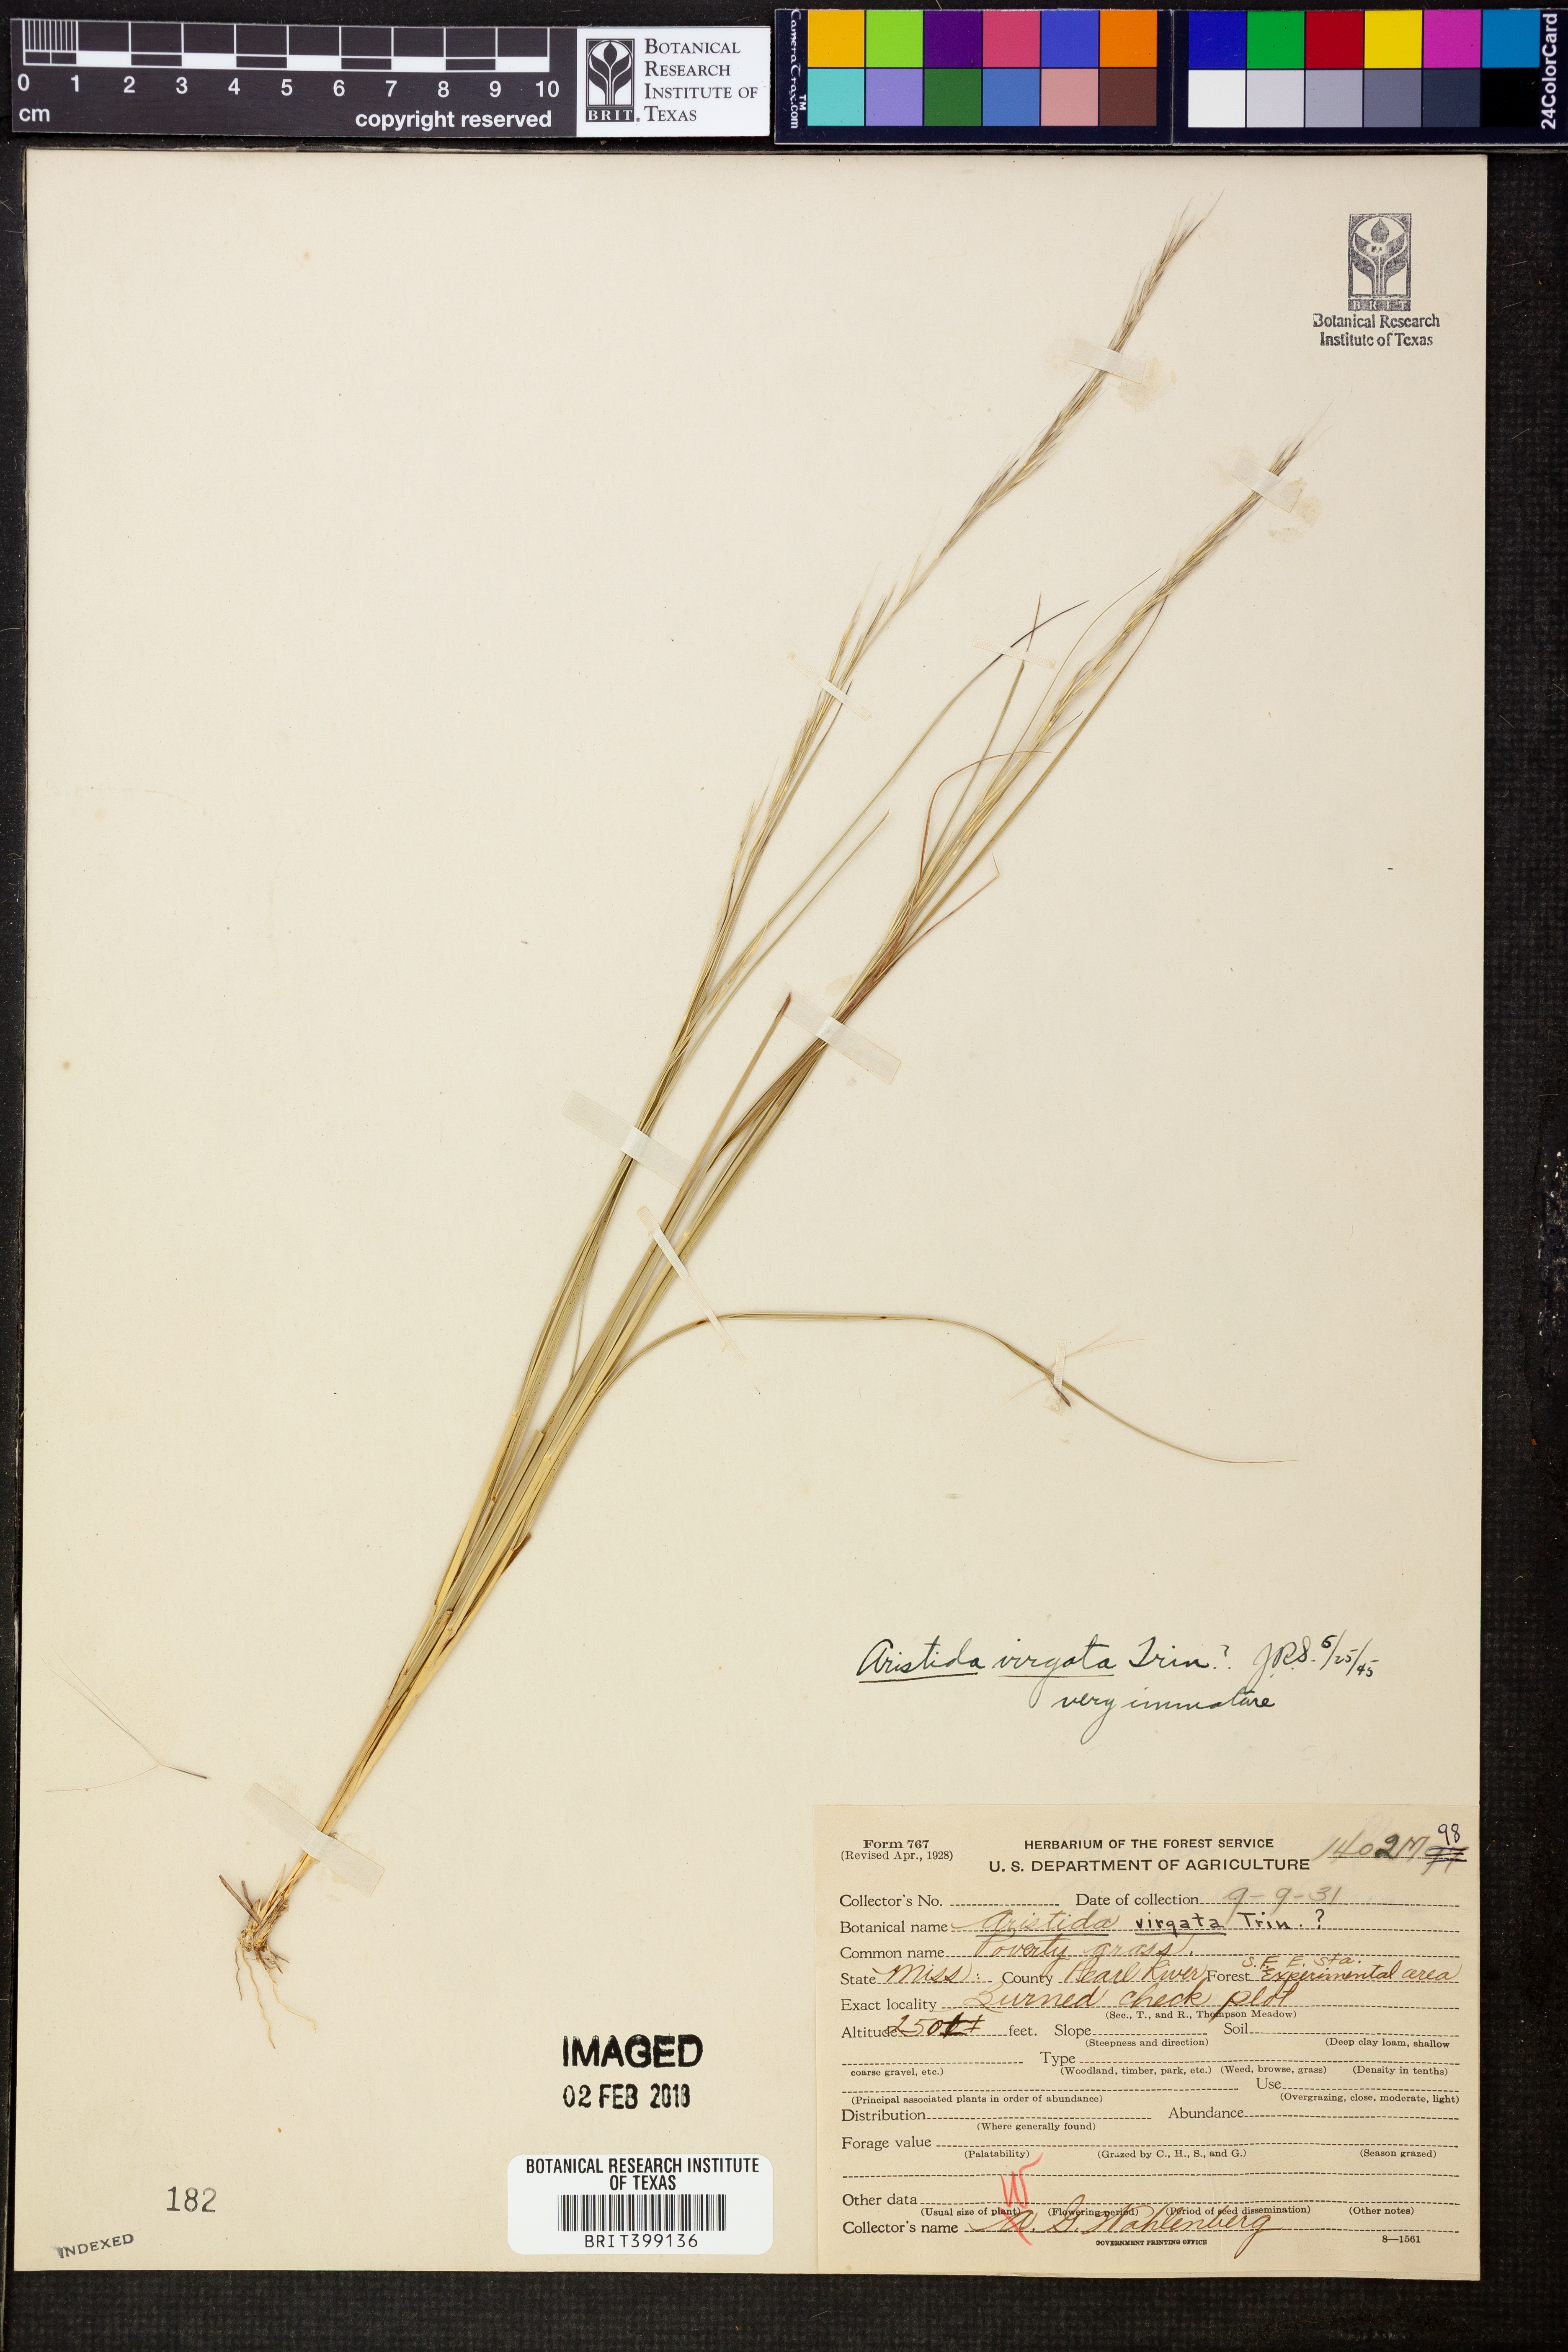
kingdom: Plantae
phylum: Tracheophyta
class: Liliopsida
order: Poales
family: Poaceae
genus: Aristida
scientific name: Aristida virgata
